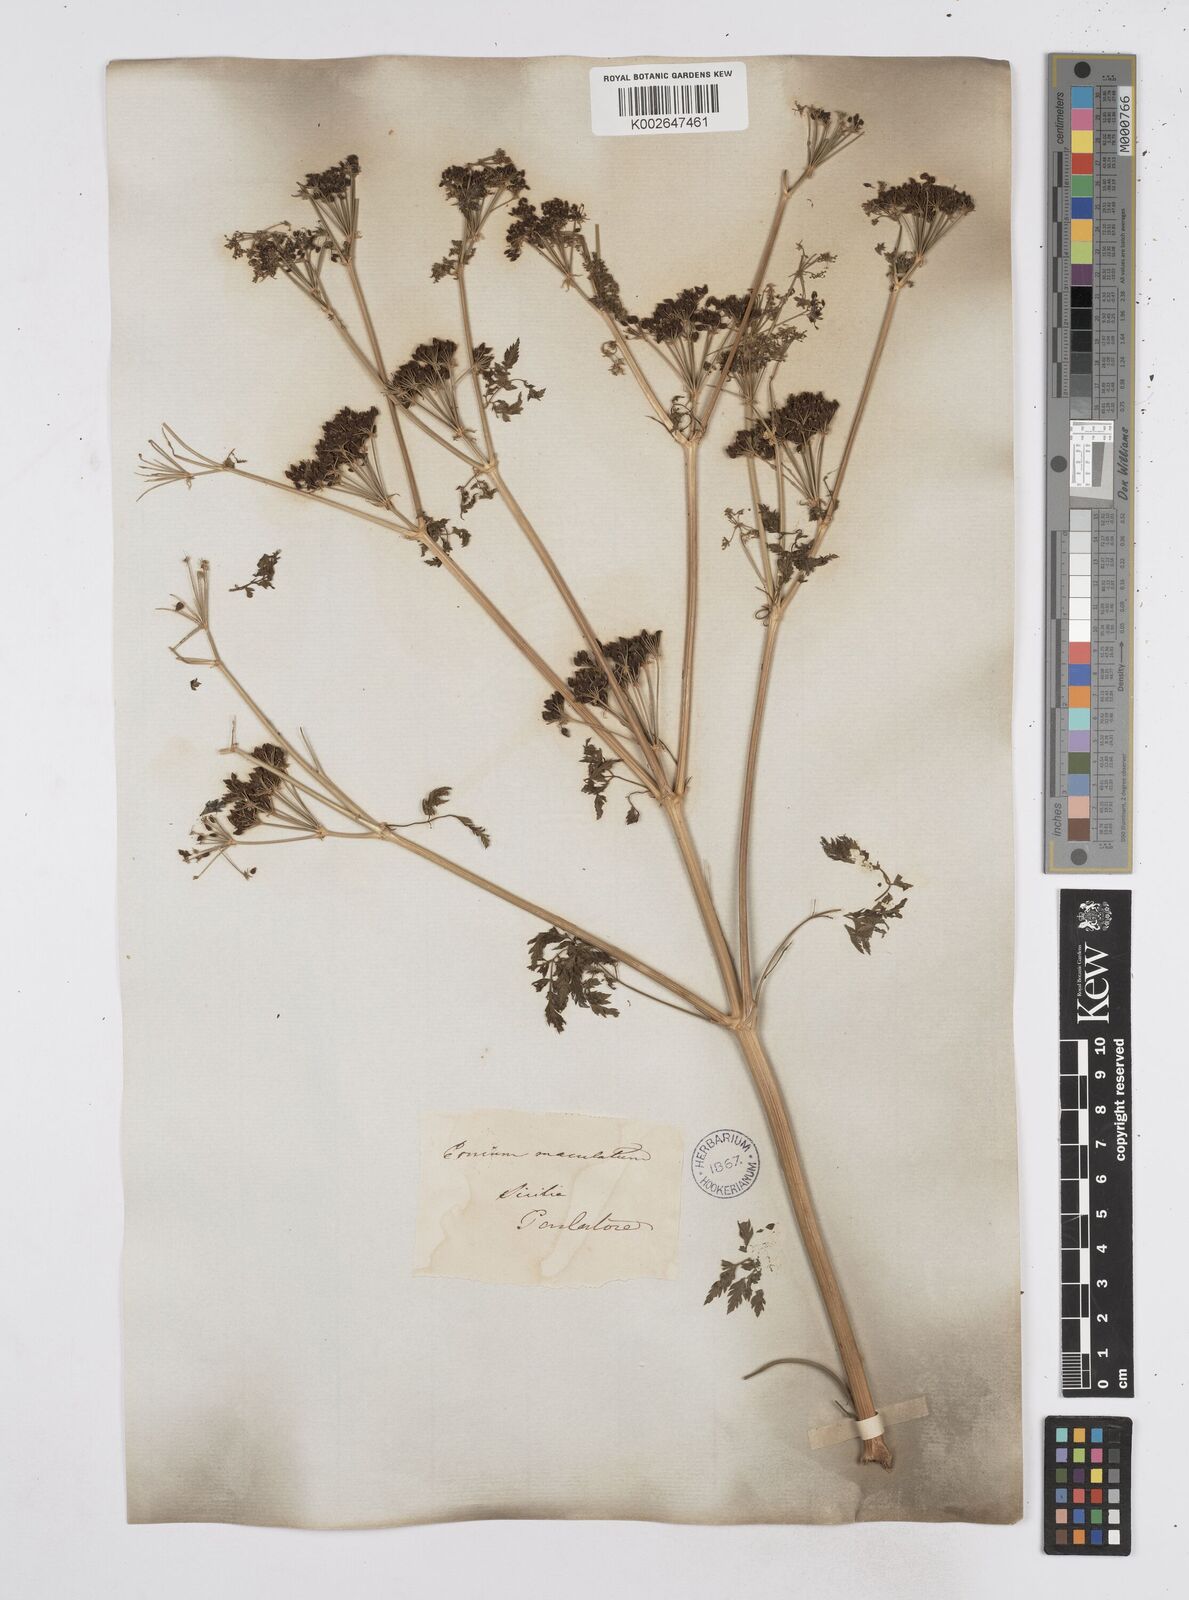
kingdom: Plantae
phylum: Tracheophyta
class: Magnoliopsida
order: Apiales
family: Apiaceae
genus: Conium
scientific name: Conium maculatum
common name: Hemlock
